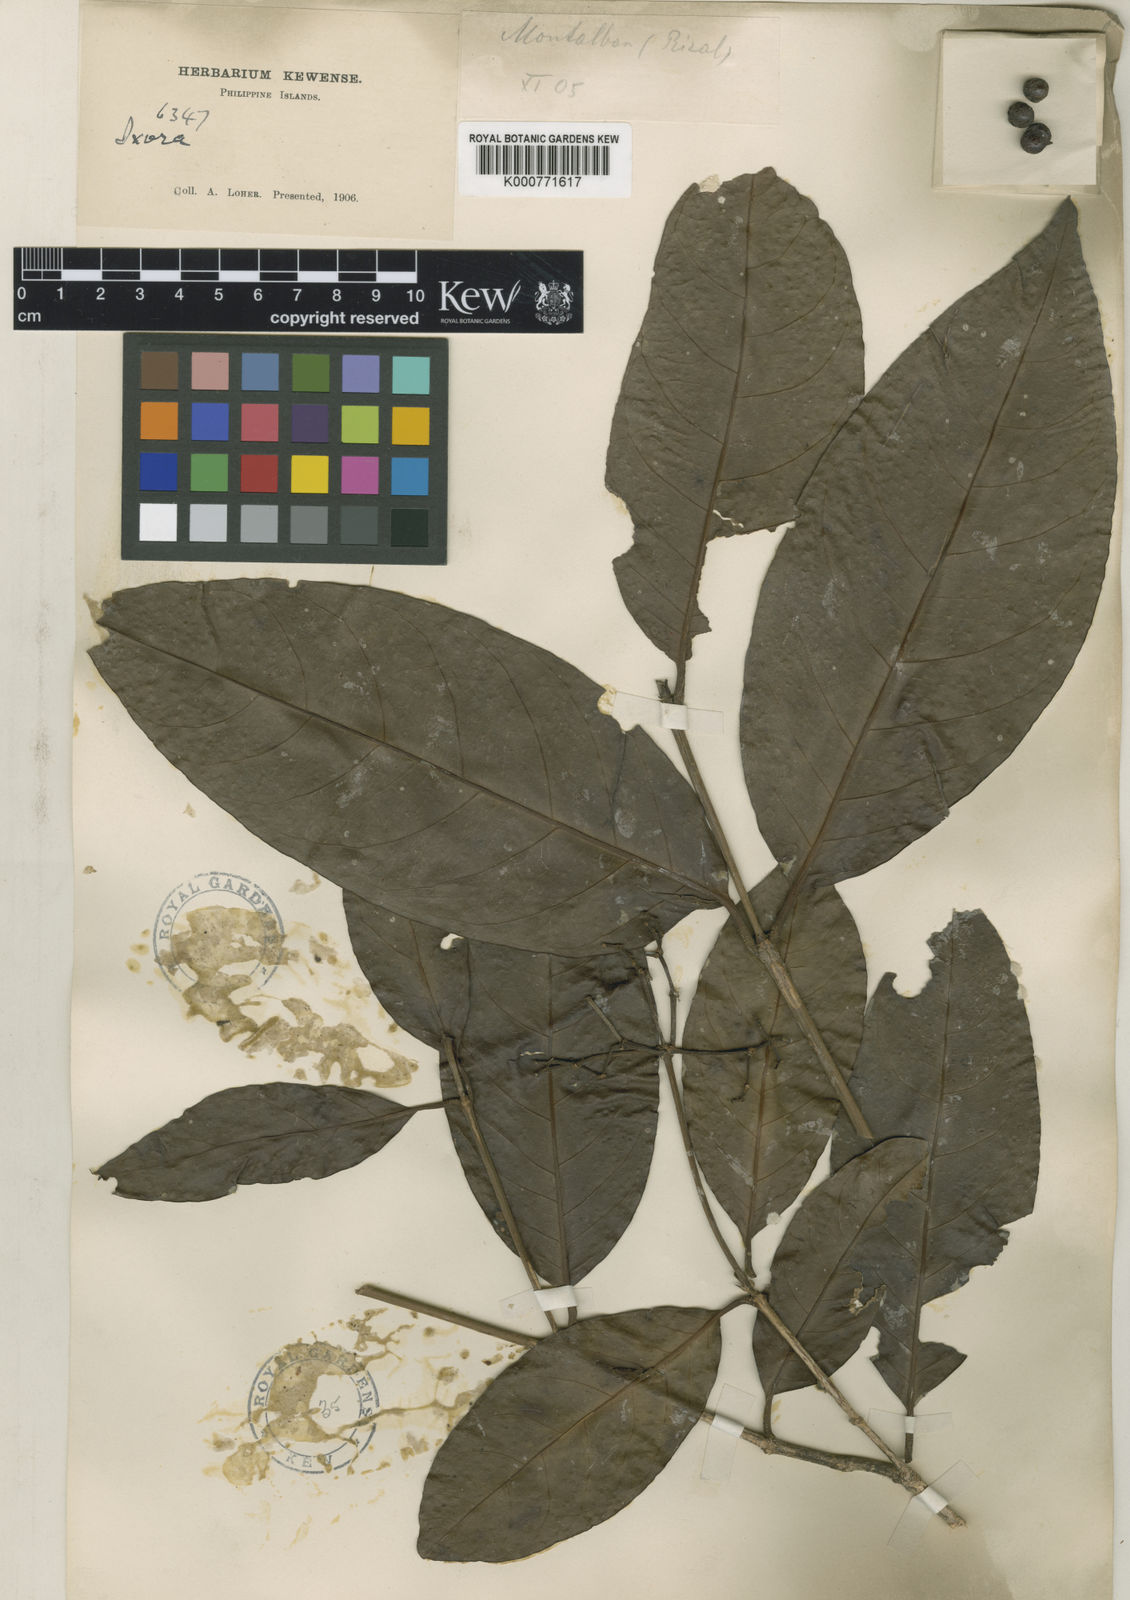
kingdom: Plantae
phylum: Tracheophyta
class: Magnoliopsida
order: Gentianales
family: Rubiaceae
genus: Ixora
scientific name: Ixora cumingiana
